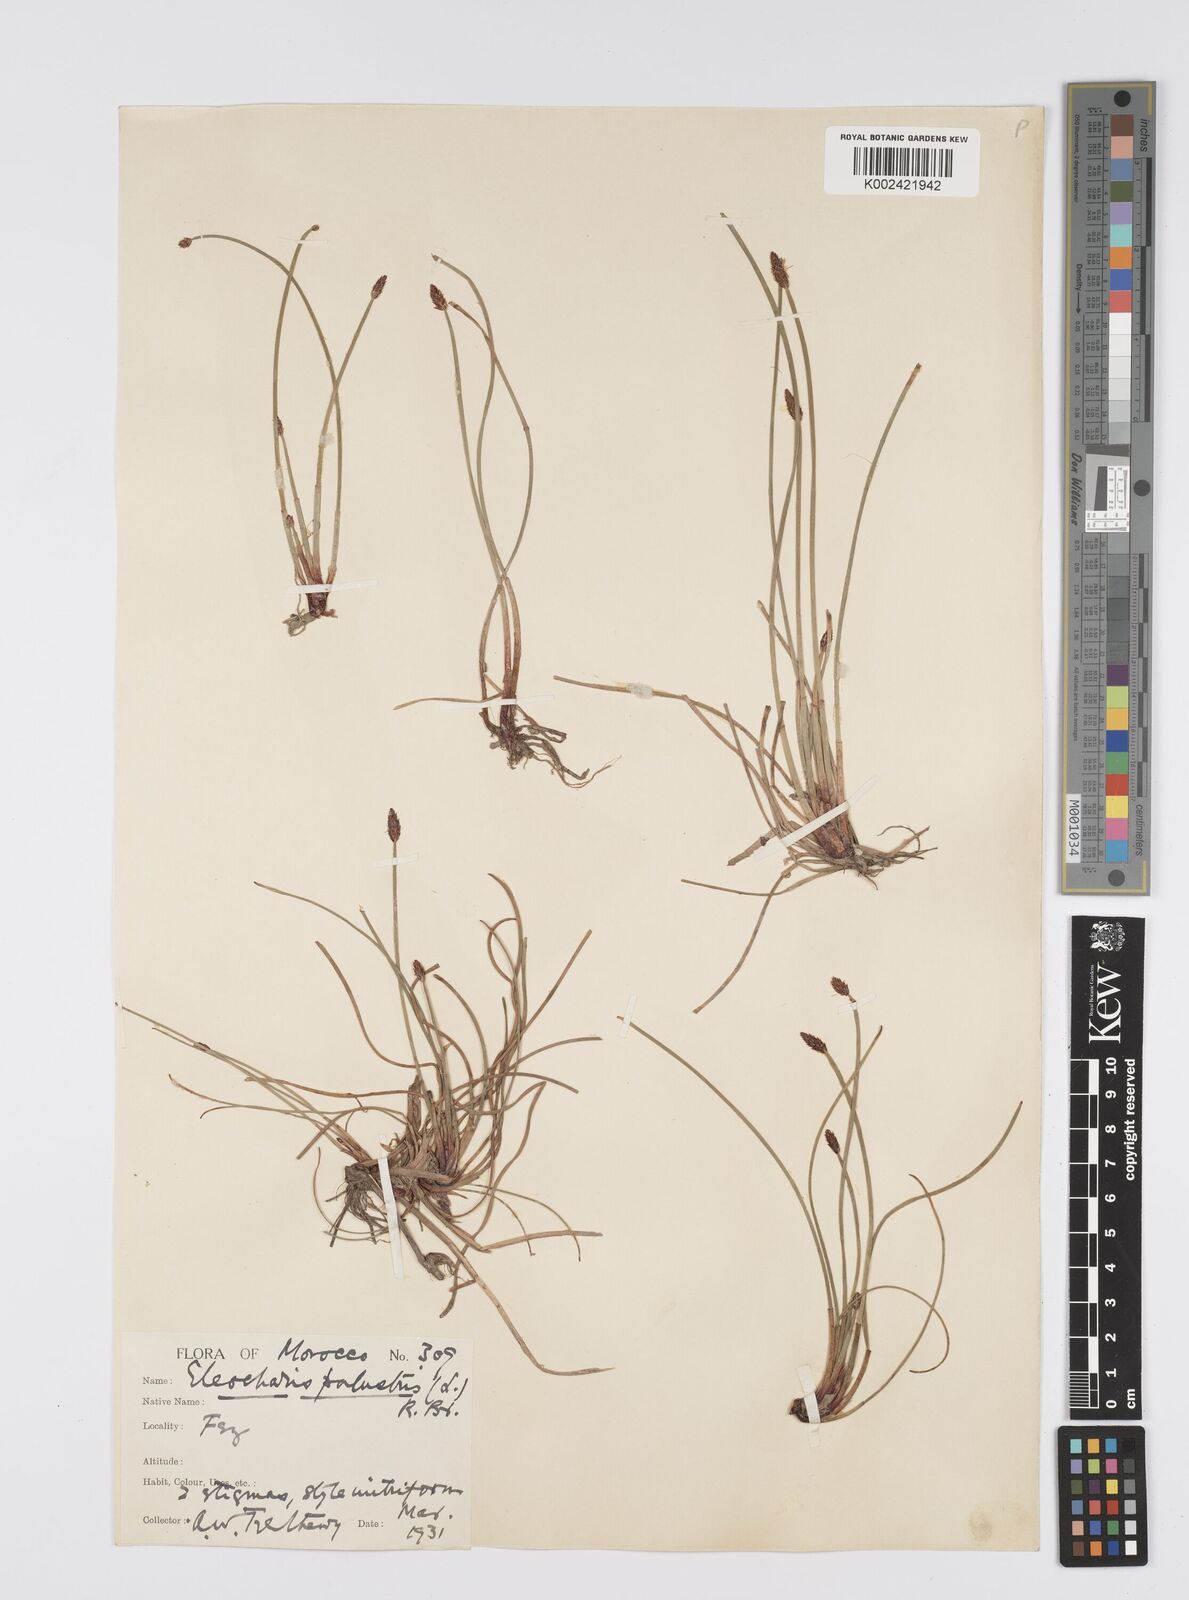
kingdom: Plantae
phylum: Tracheophyta
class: Liliopsida
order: Poales
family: Cyperaceae
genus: Eleocharis
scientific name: Eleocharis palustris
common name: Common spike-rush
